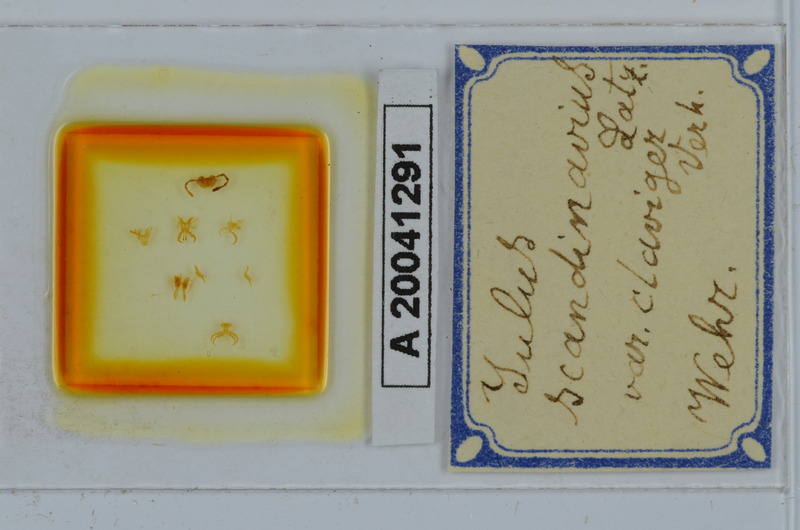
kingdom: Animalia
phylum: Arthropoda
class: Diplopoda
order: Julida
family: Julidae
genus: Julus
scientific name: Julus scandinavius
